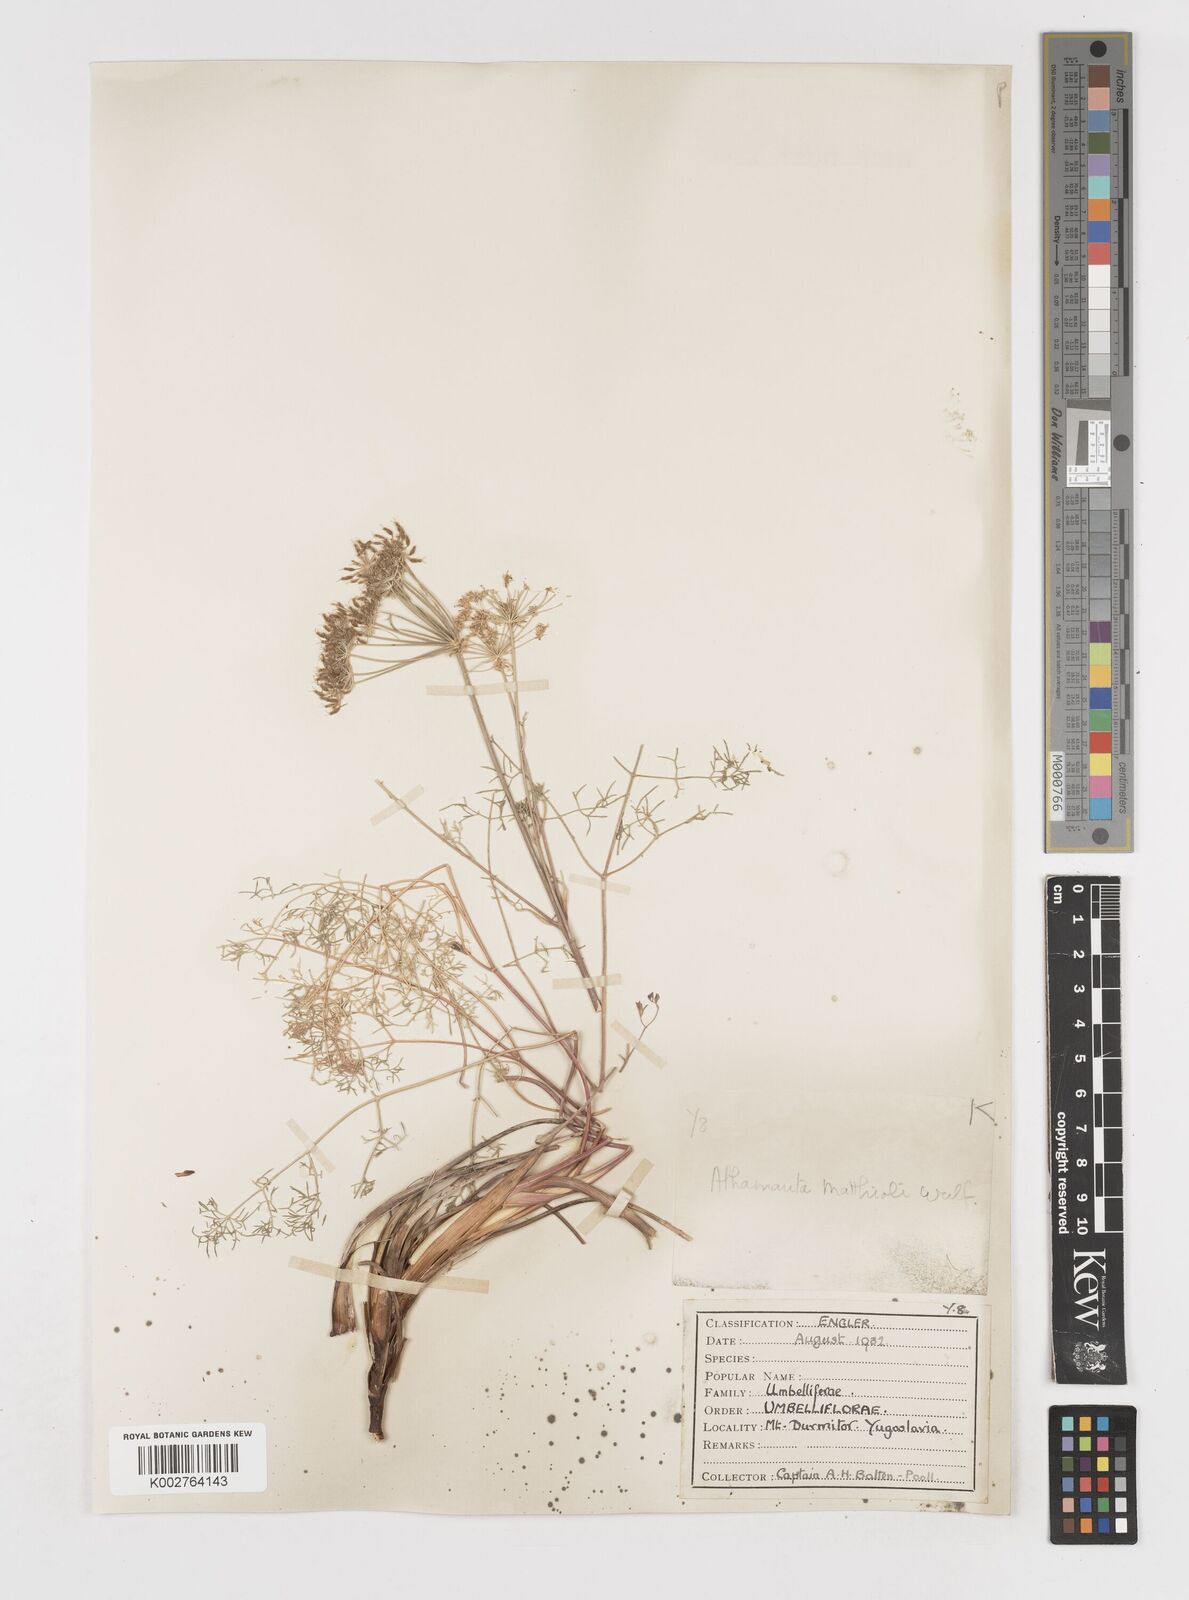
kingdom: Plantae
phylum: Tracheophyta
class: Magnoliopsida
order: Apiales
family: Apiaceae
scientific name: Apiaceae
